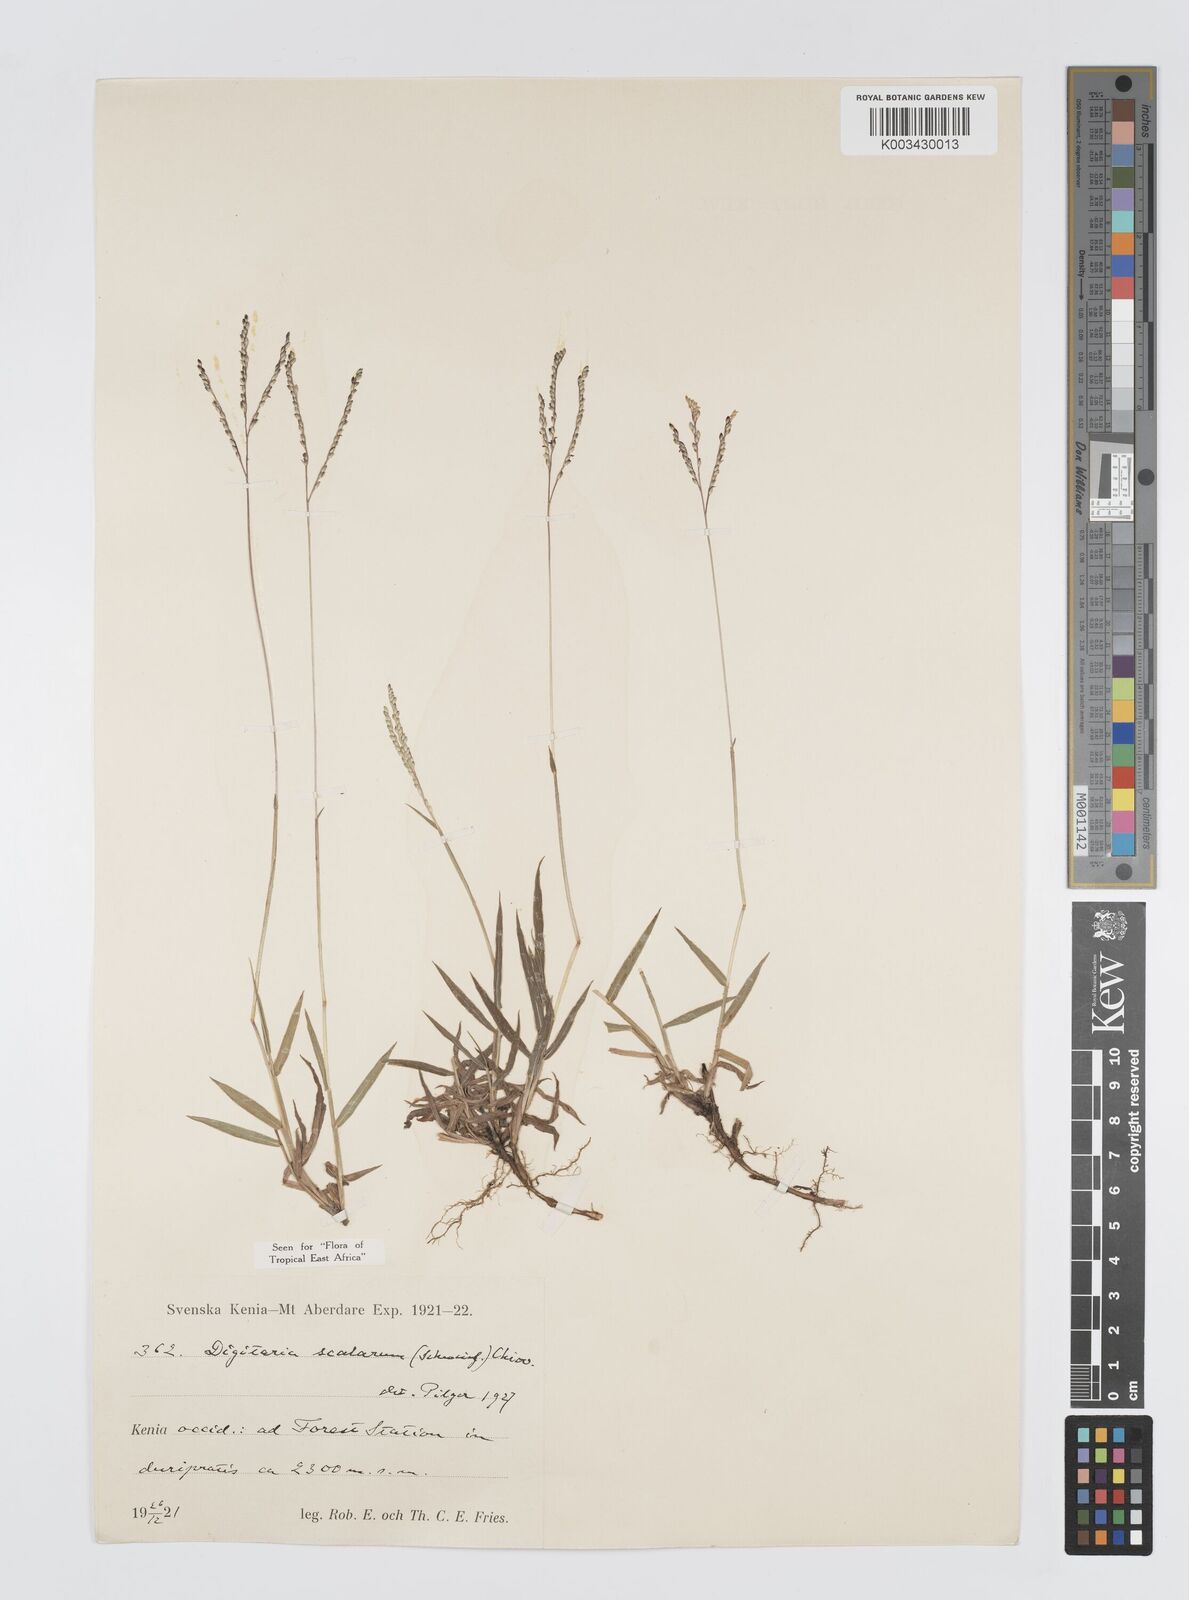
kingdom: Plantae
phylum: Tracheophyta
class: Liliopsida
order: Poales
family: Poaceae
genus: Digitaria
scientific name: Digitaria abyssinica
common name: African couchgrass
